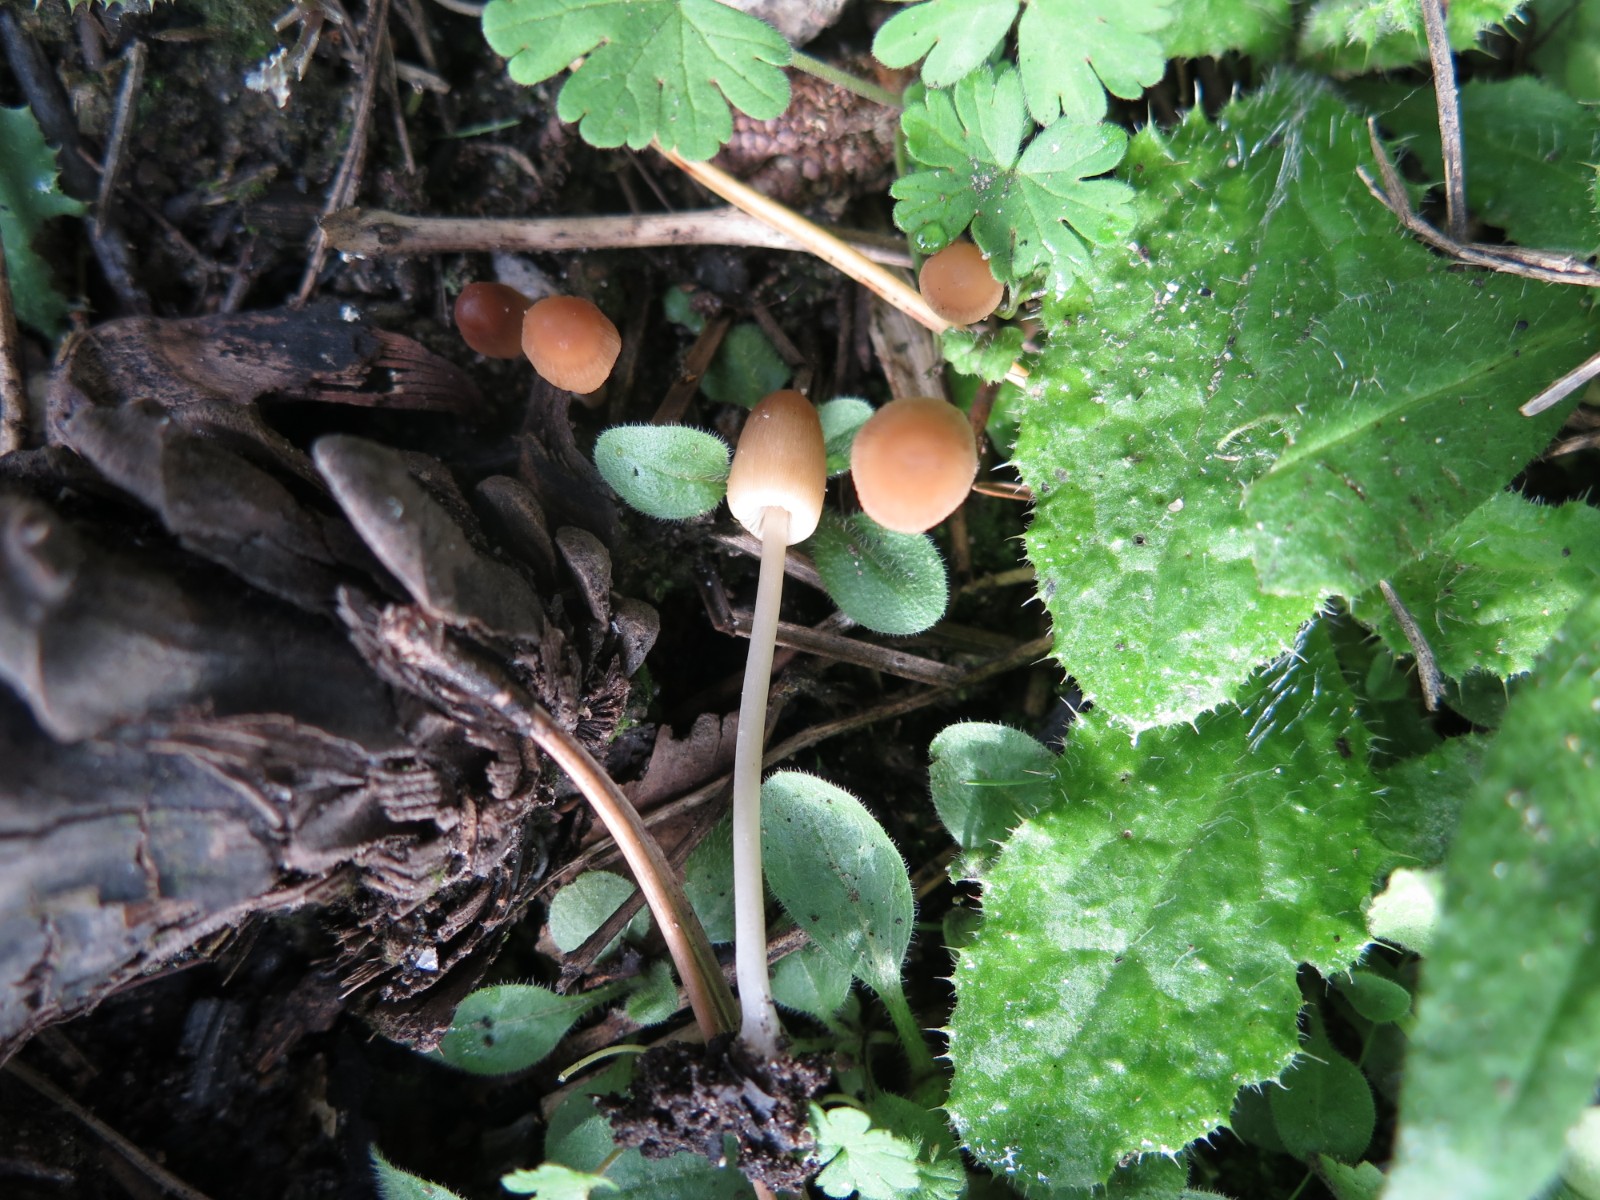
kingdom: Fungi
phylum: Basidiomycota
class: Agaricomycetes
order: Agaricales
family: Psathyrellaceae
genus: Parasola
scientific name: Parasola misera
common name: lillebitte hjulhat
